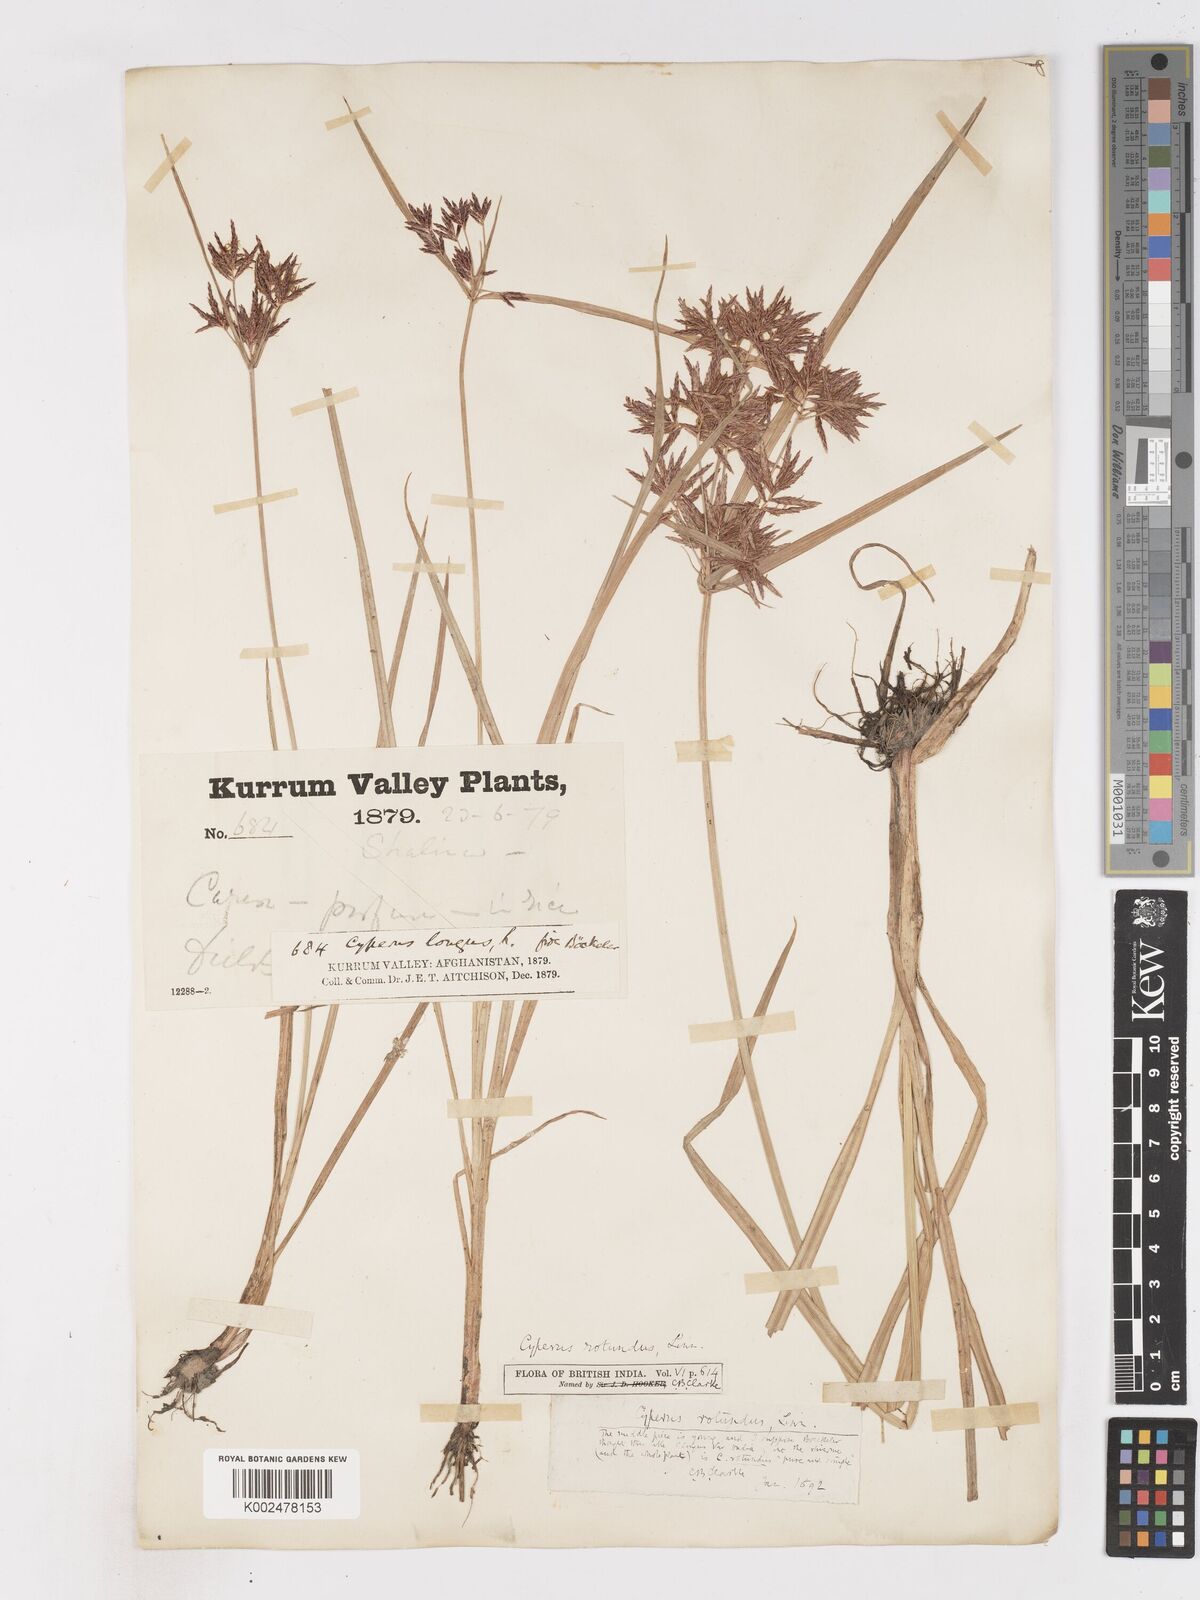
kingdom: Plantae
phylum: Tracheophyta
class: Liliopsida
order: Poales
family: Cyperaceae
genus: Cyperus
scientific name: Cyperus rotundus
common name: Nutgrass
